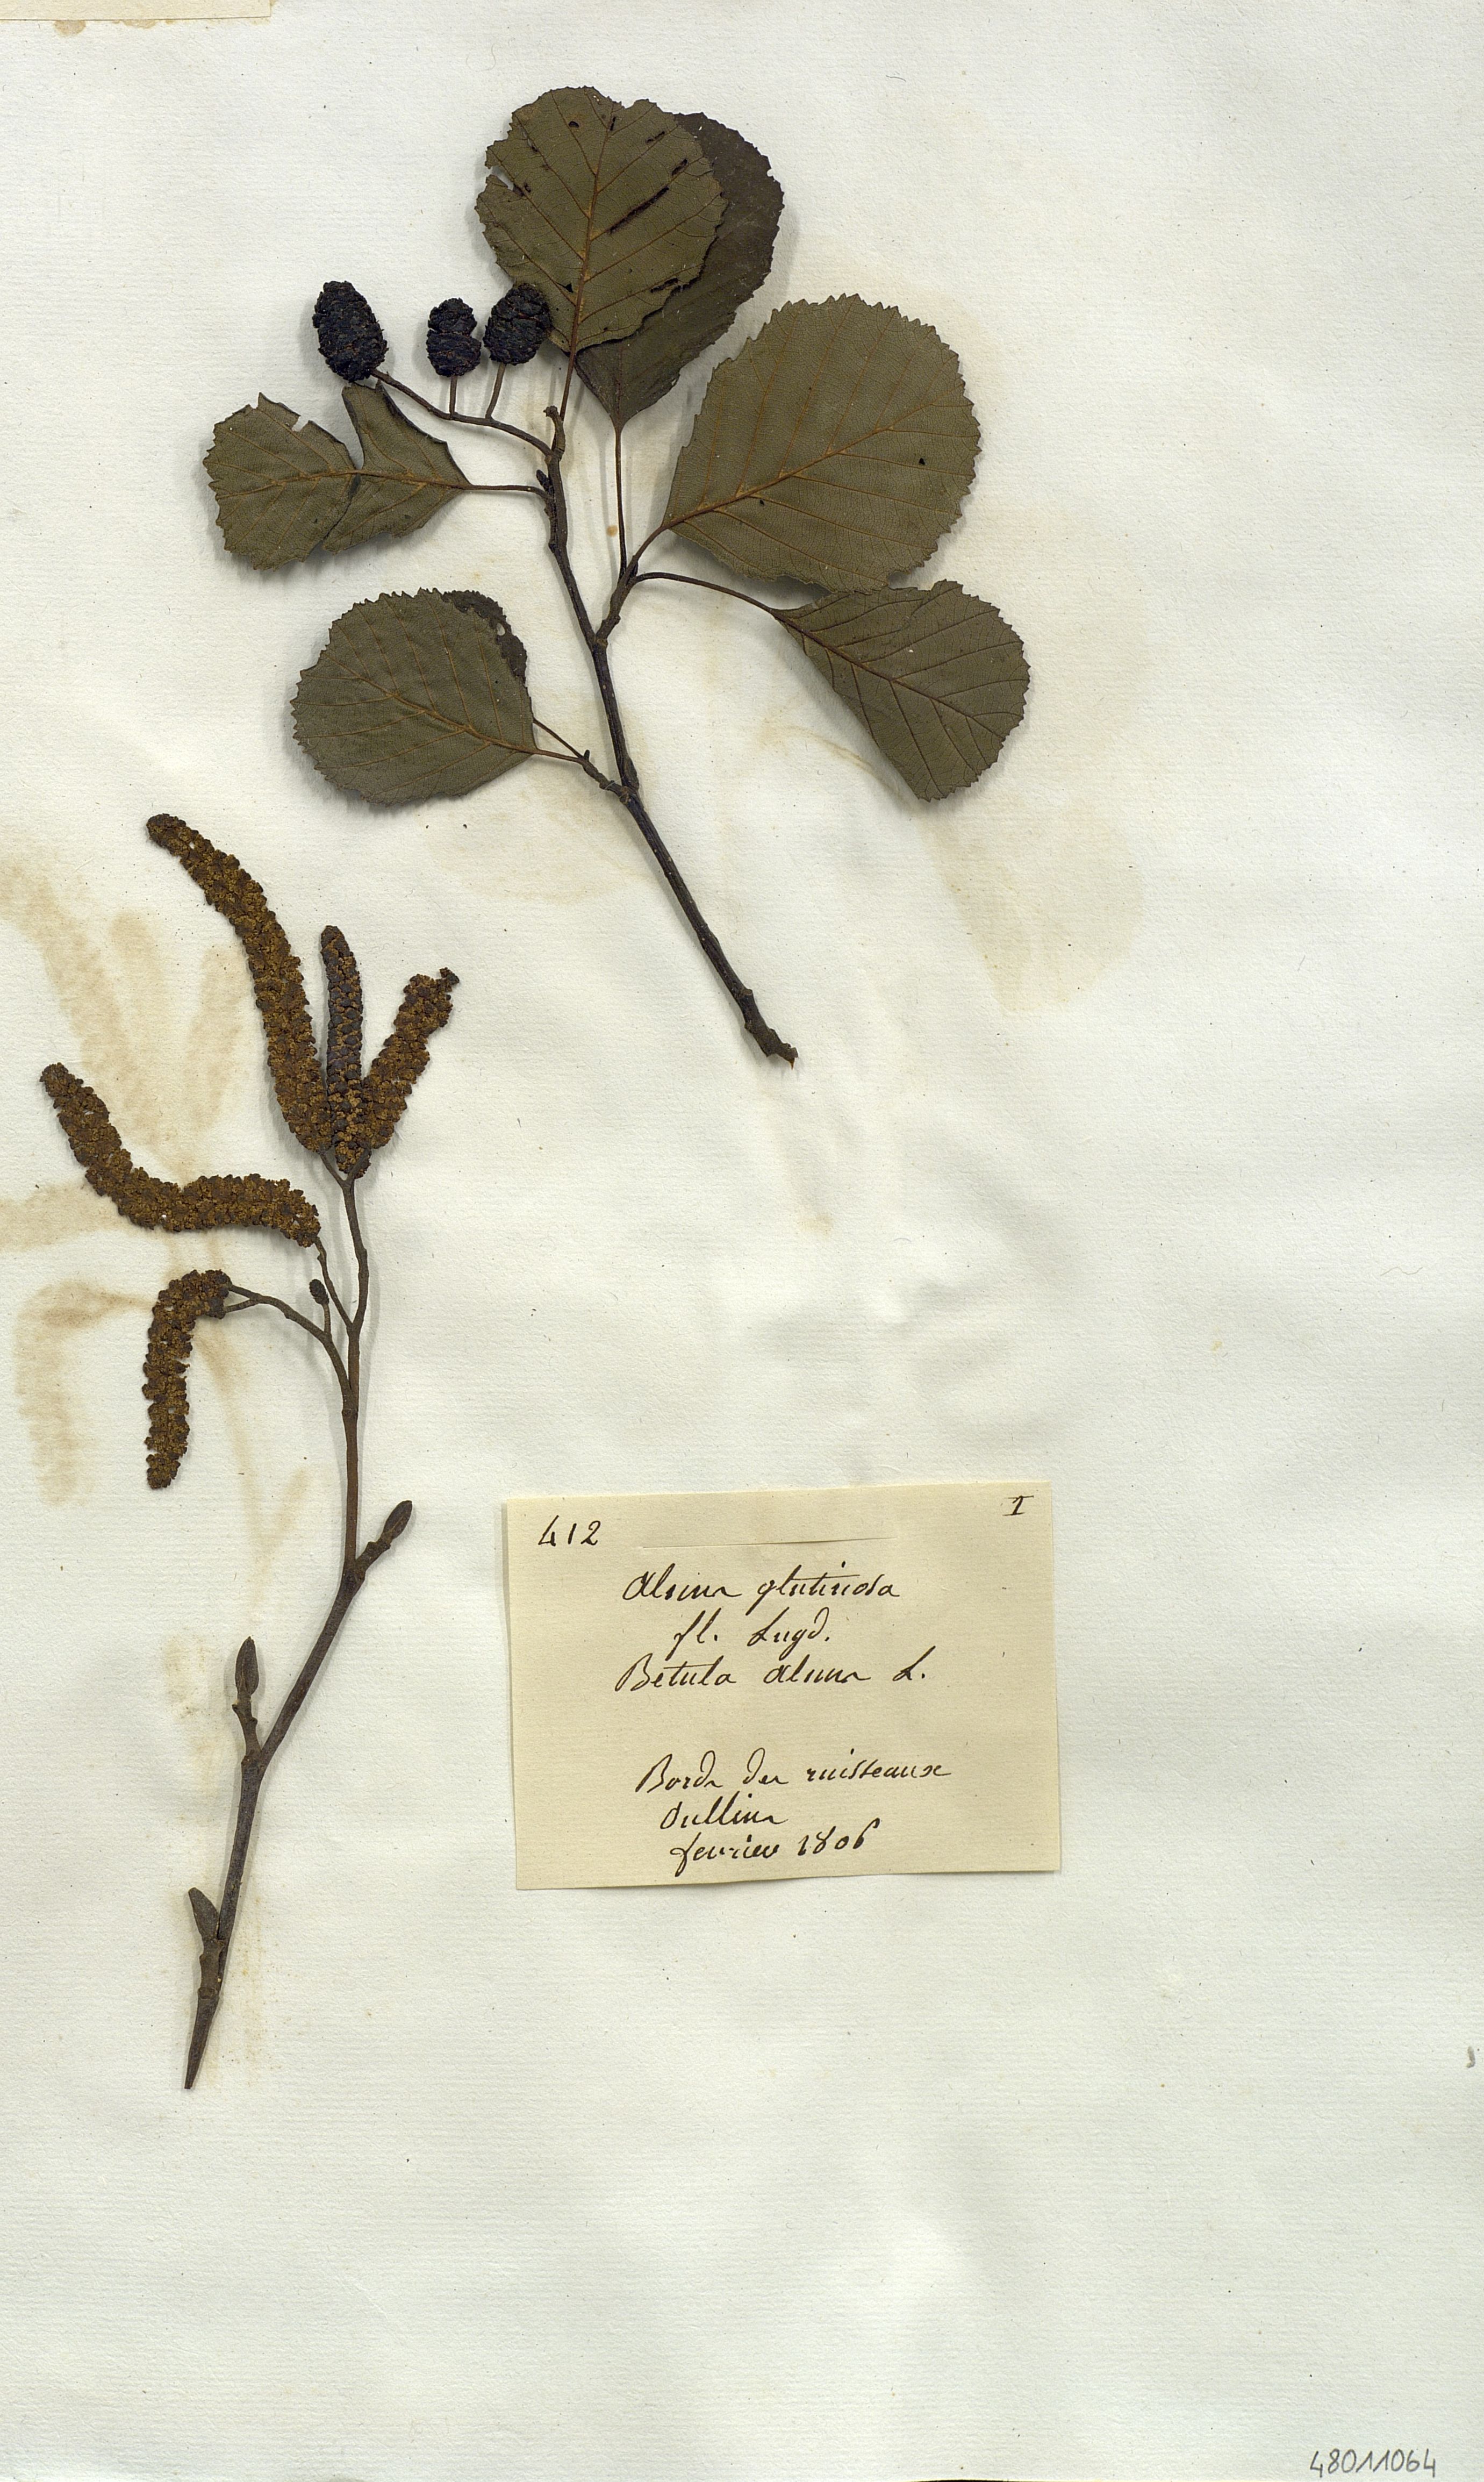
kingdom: Plantae
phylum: Tracheophyta
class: Magnoliopsida
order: Fagales
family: Betulaceae
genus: Alnus
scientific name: Alnus glutinosa
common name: Black alder
